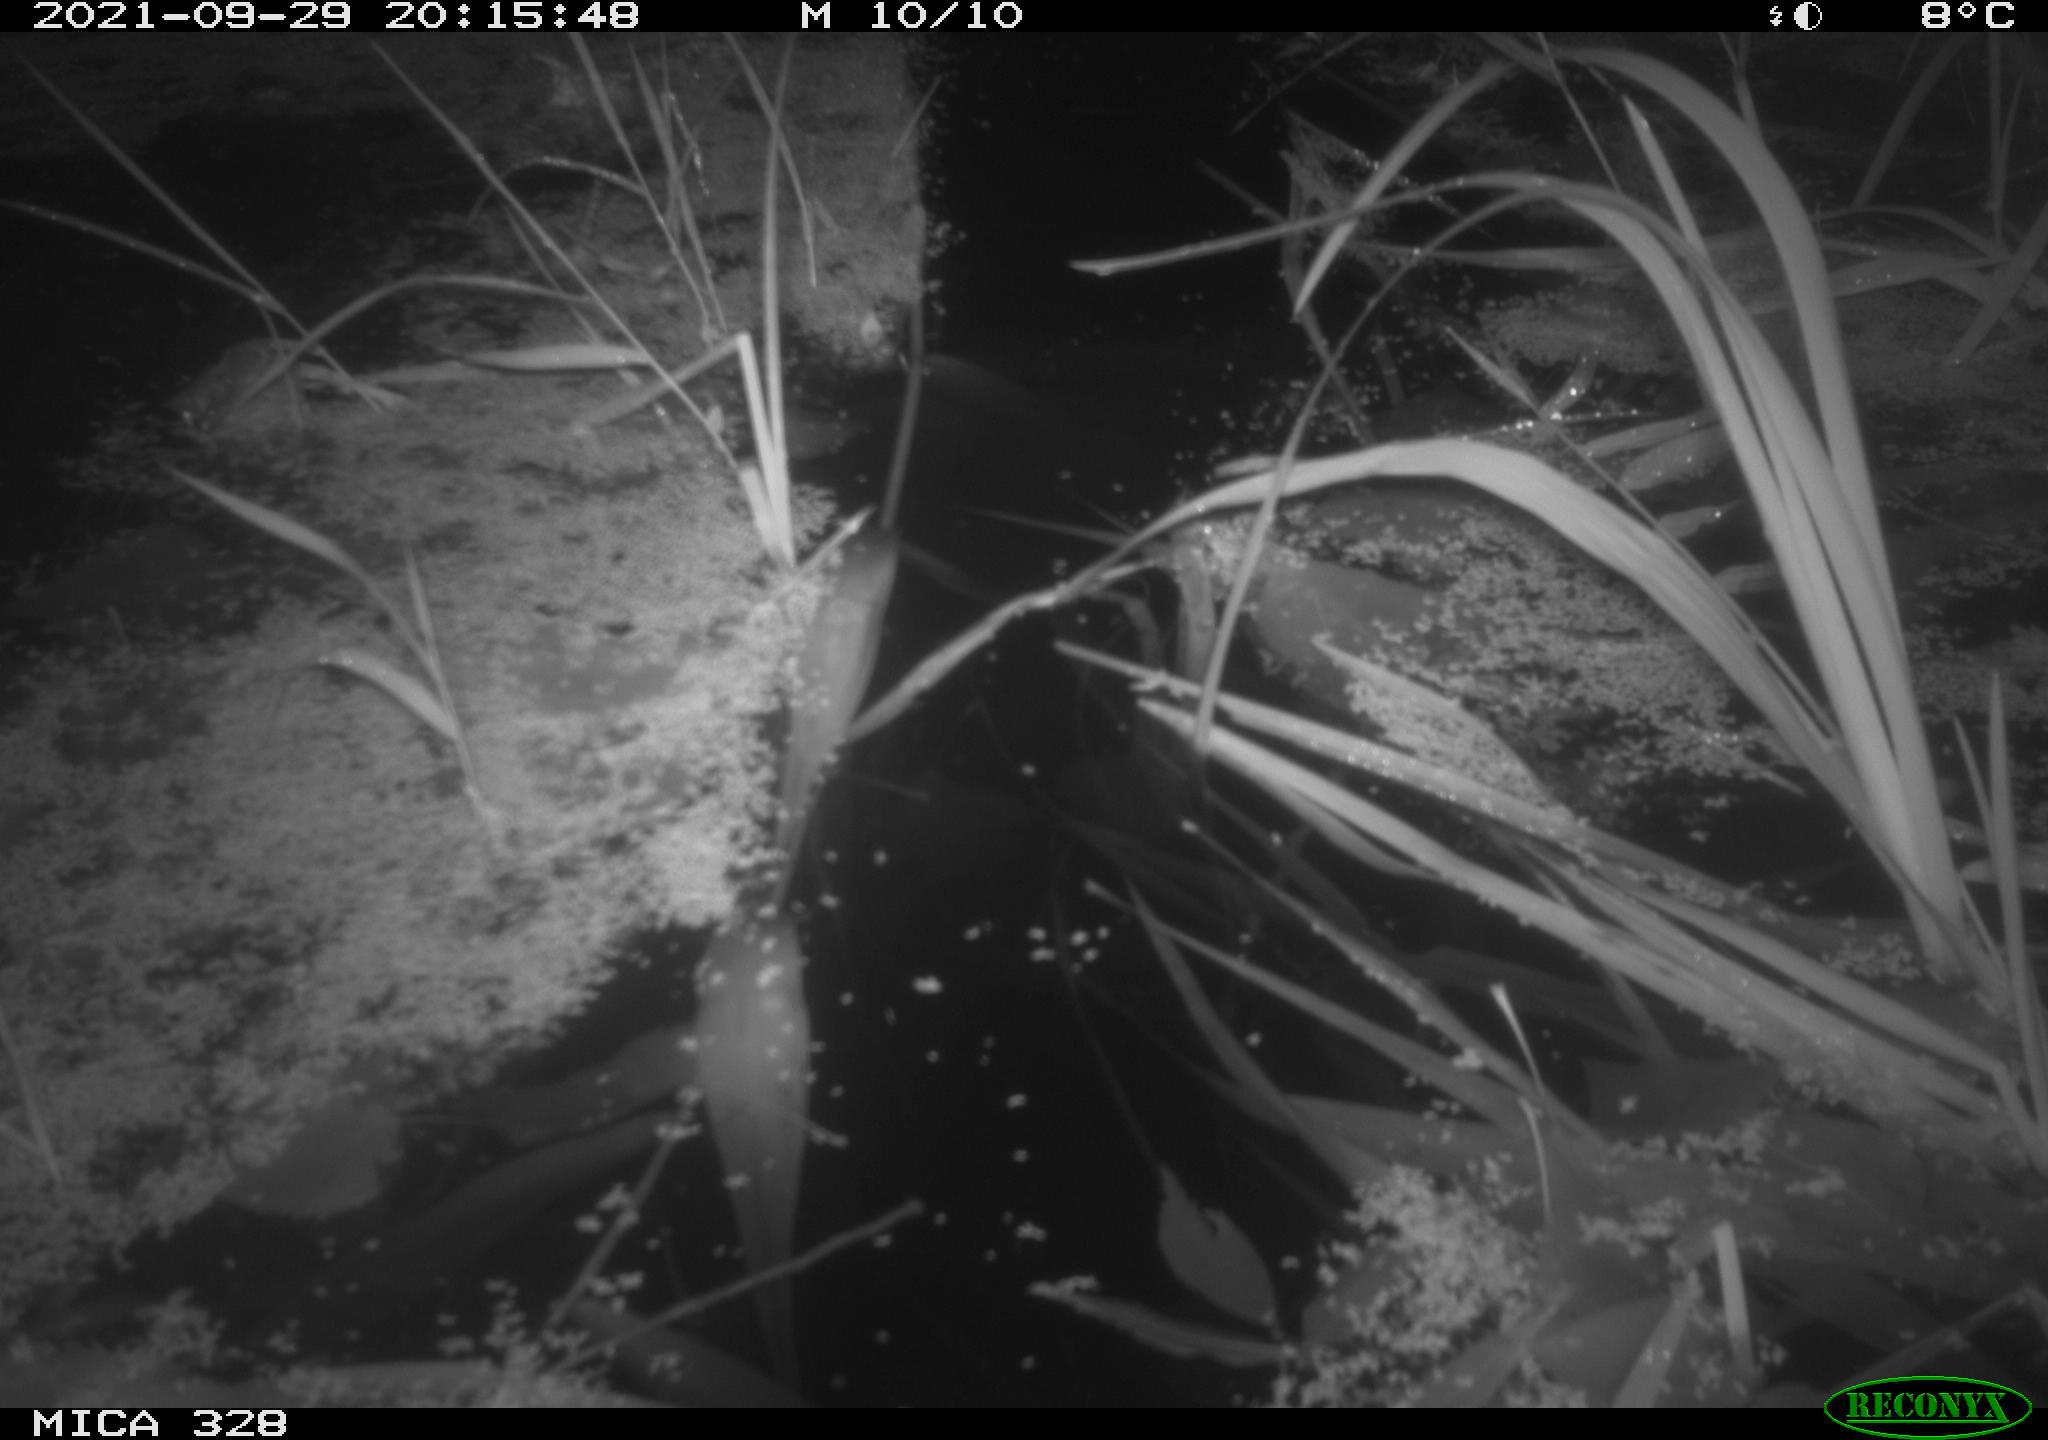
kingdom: Animalia
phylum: Chordata
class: Mammalia
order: Rodentia
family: Cricetidae
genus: Ondatra
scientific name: Ondatra zibethicus
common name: Muskrat
